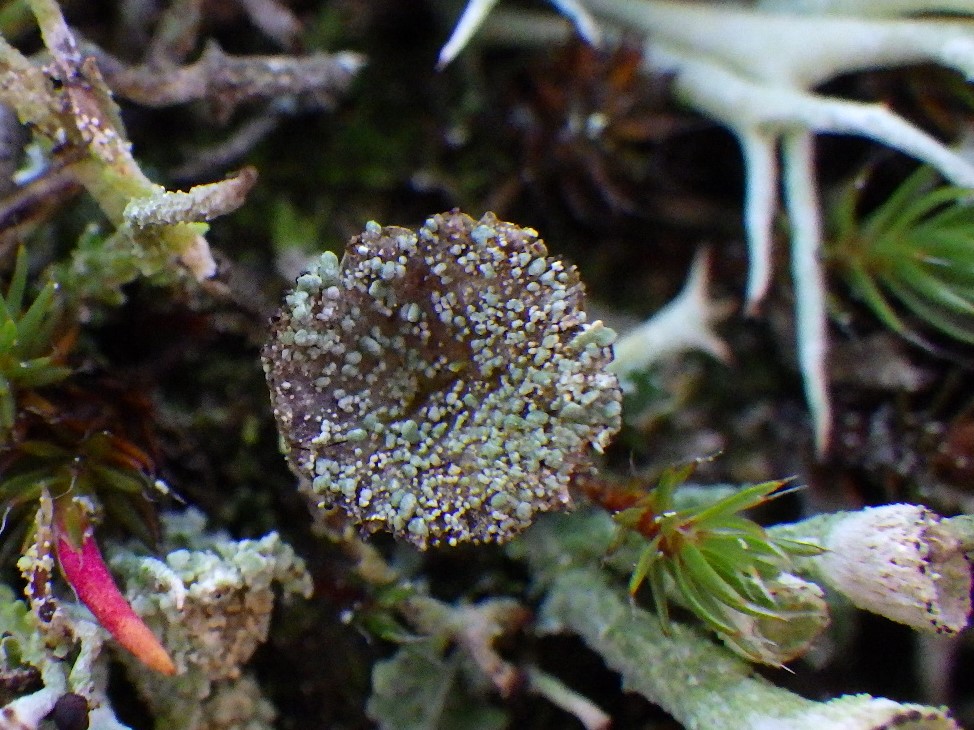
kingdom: Fungi
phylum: Ascomycota
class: Lecanoromycetes
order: Lecanorales
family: Cladoniaceae
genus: Cladonia
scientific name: Cladonia pyxidata
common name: tragt-bægerlav
